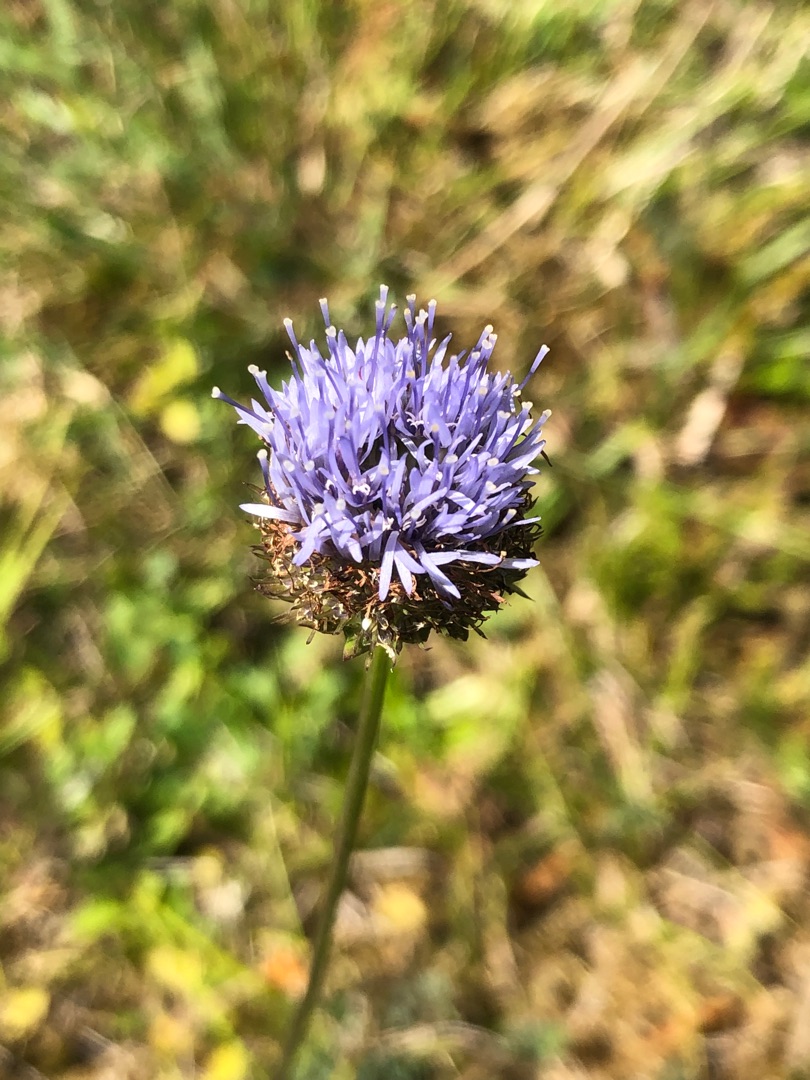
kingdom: Plantae
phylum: Tracheophyta
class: Magnoliopsida
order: Asterales
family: Campanulaceae
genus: Jasione
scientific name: Jasione montana
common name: Blåmunke
